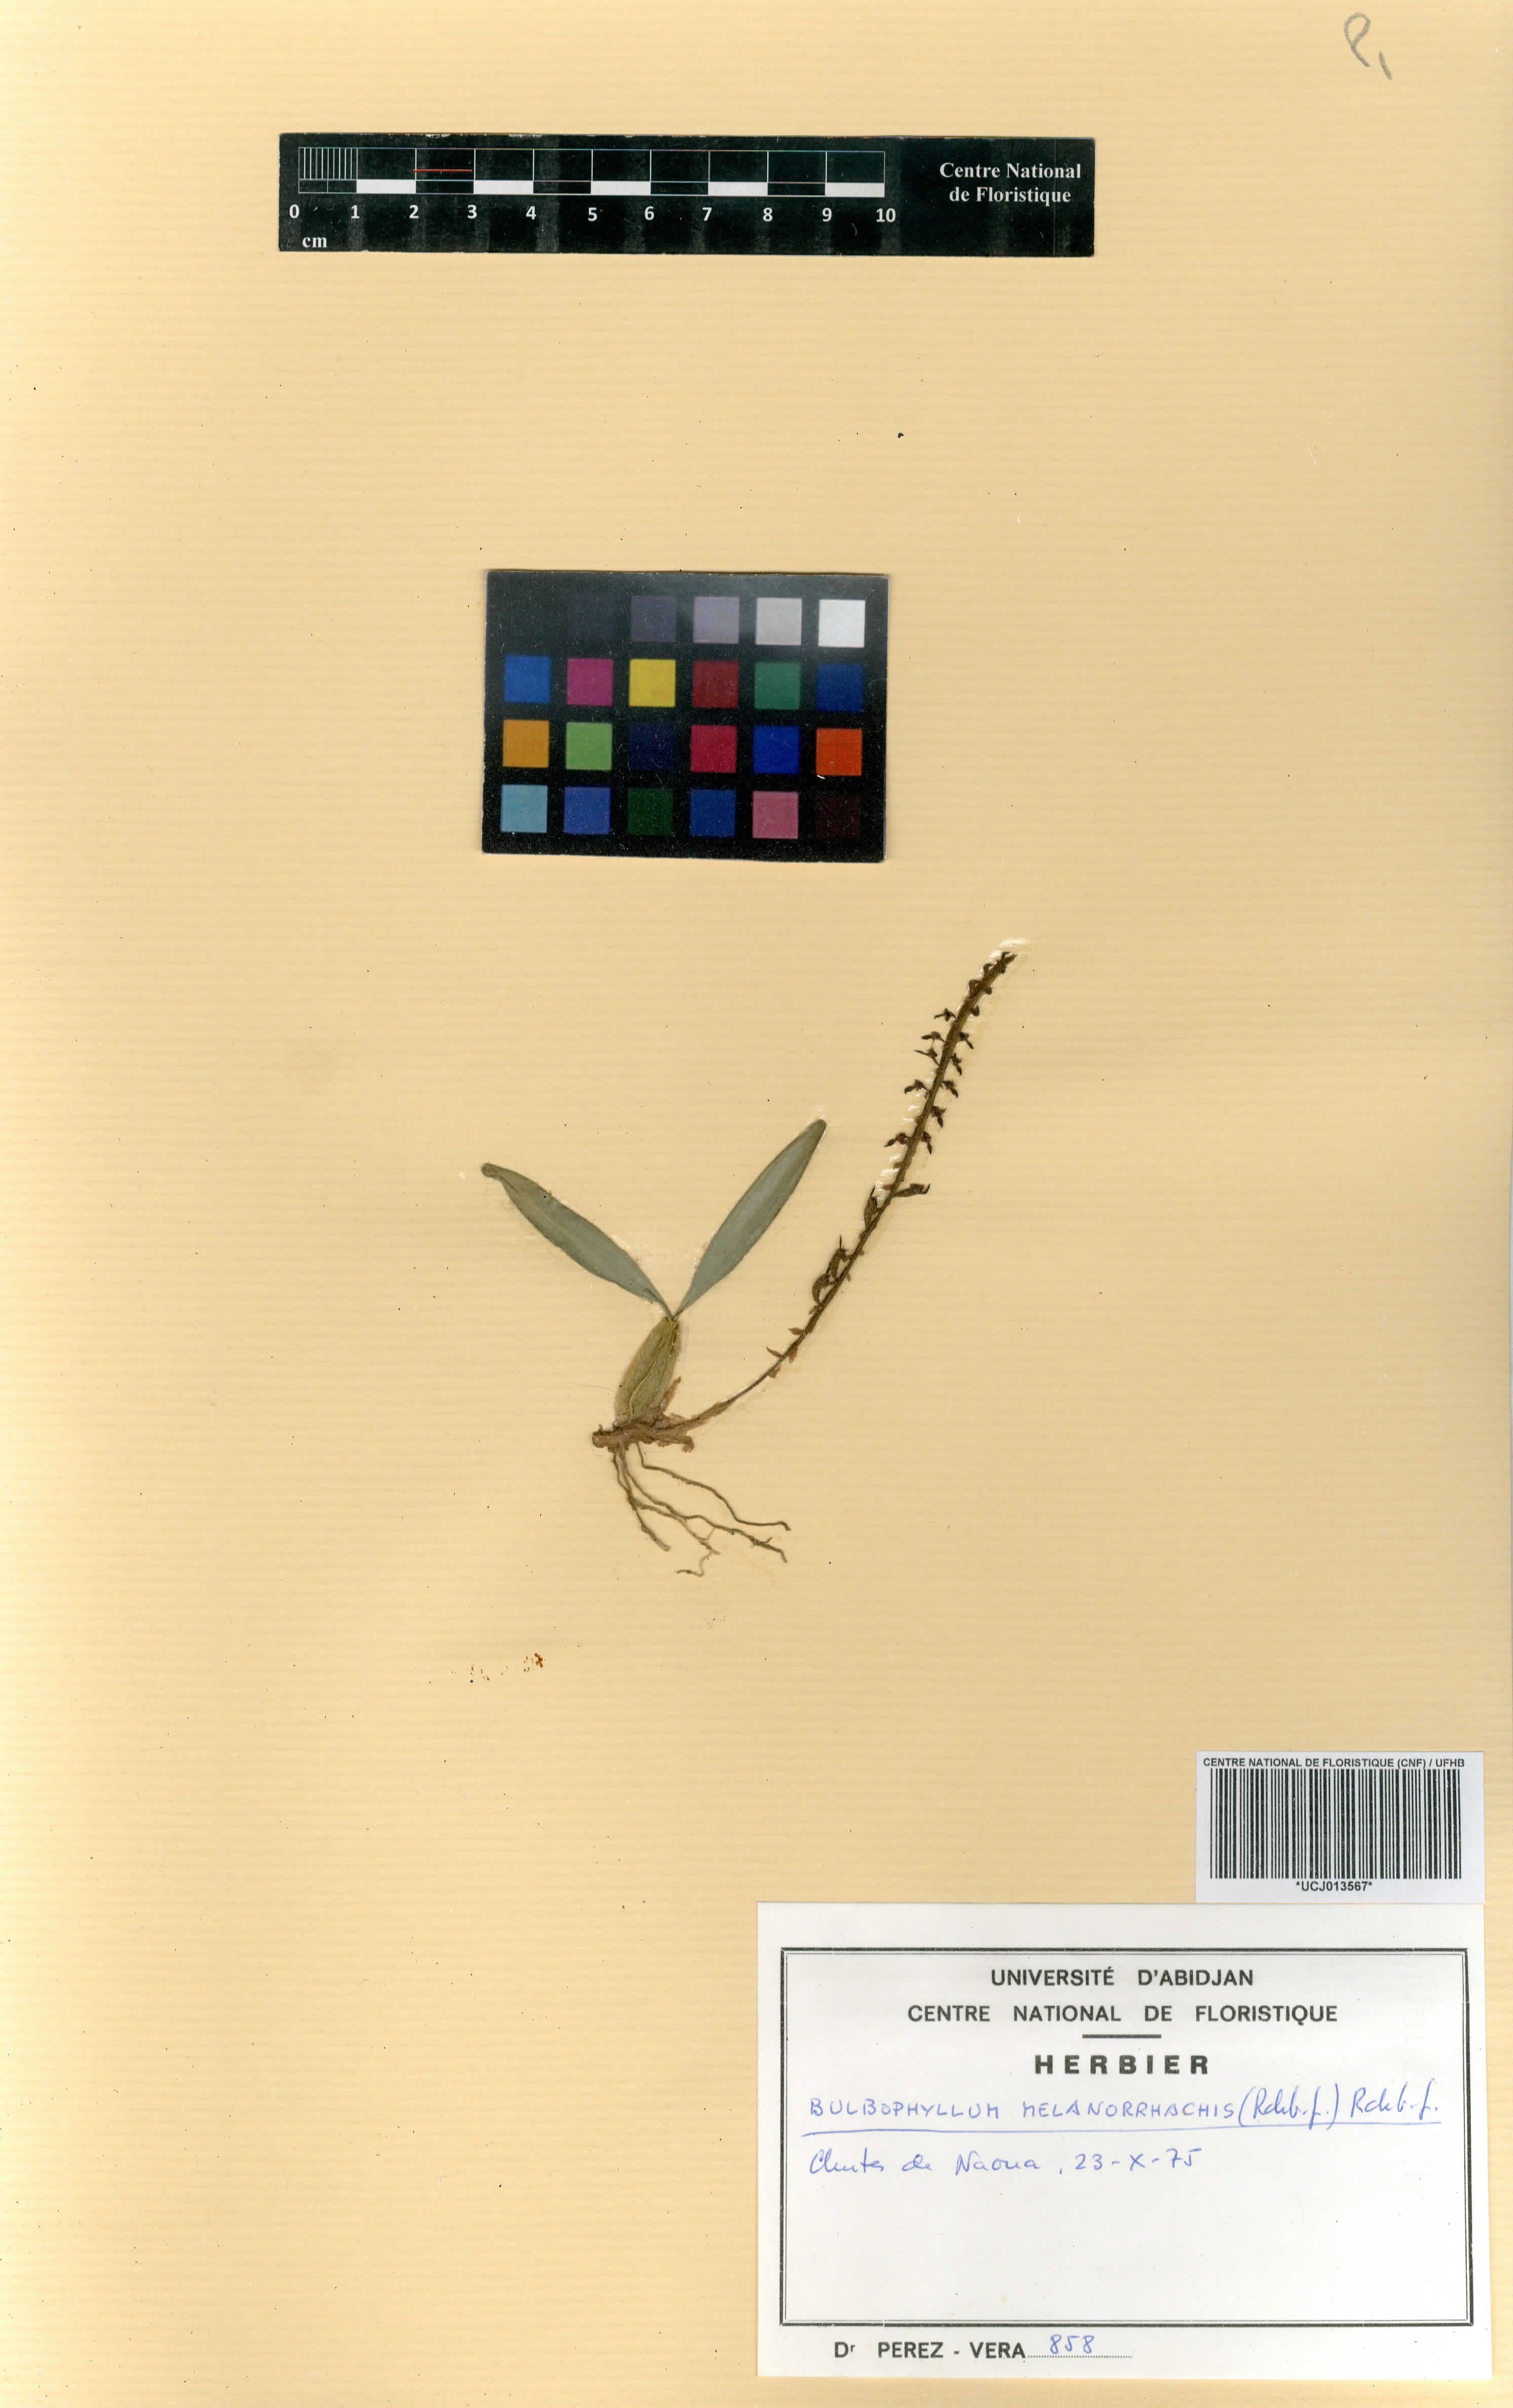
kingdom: Plantae
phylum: Tracheophyta
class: Liliopsida
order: Asparagales
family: Orchidaceae
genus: Bulbophyllum
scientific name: Bulbophyllum falcatum
